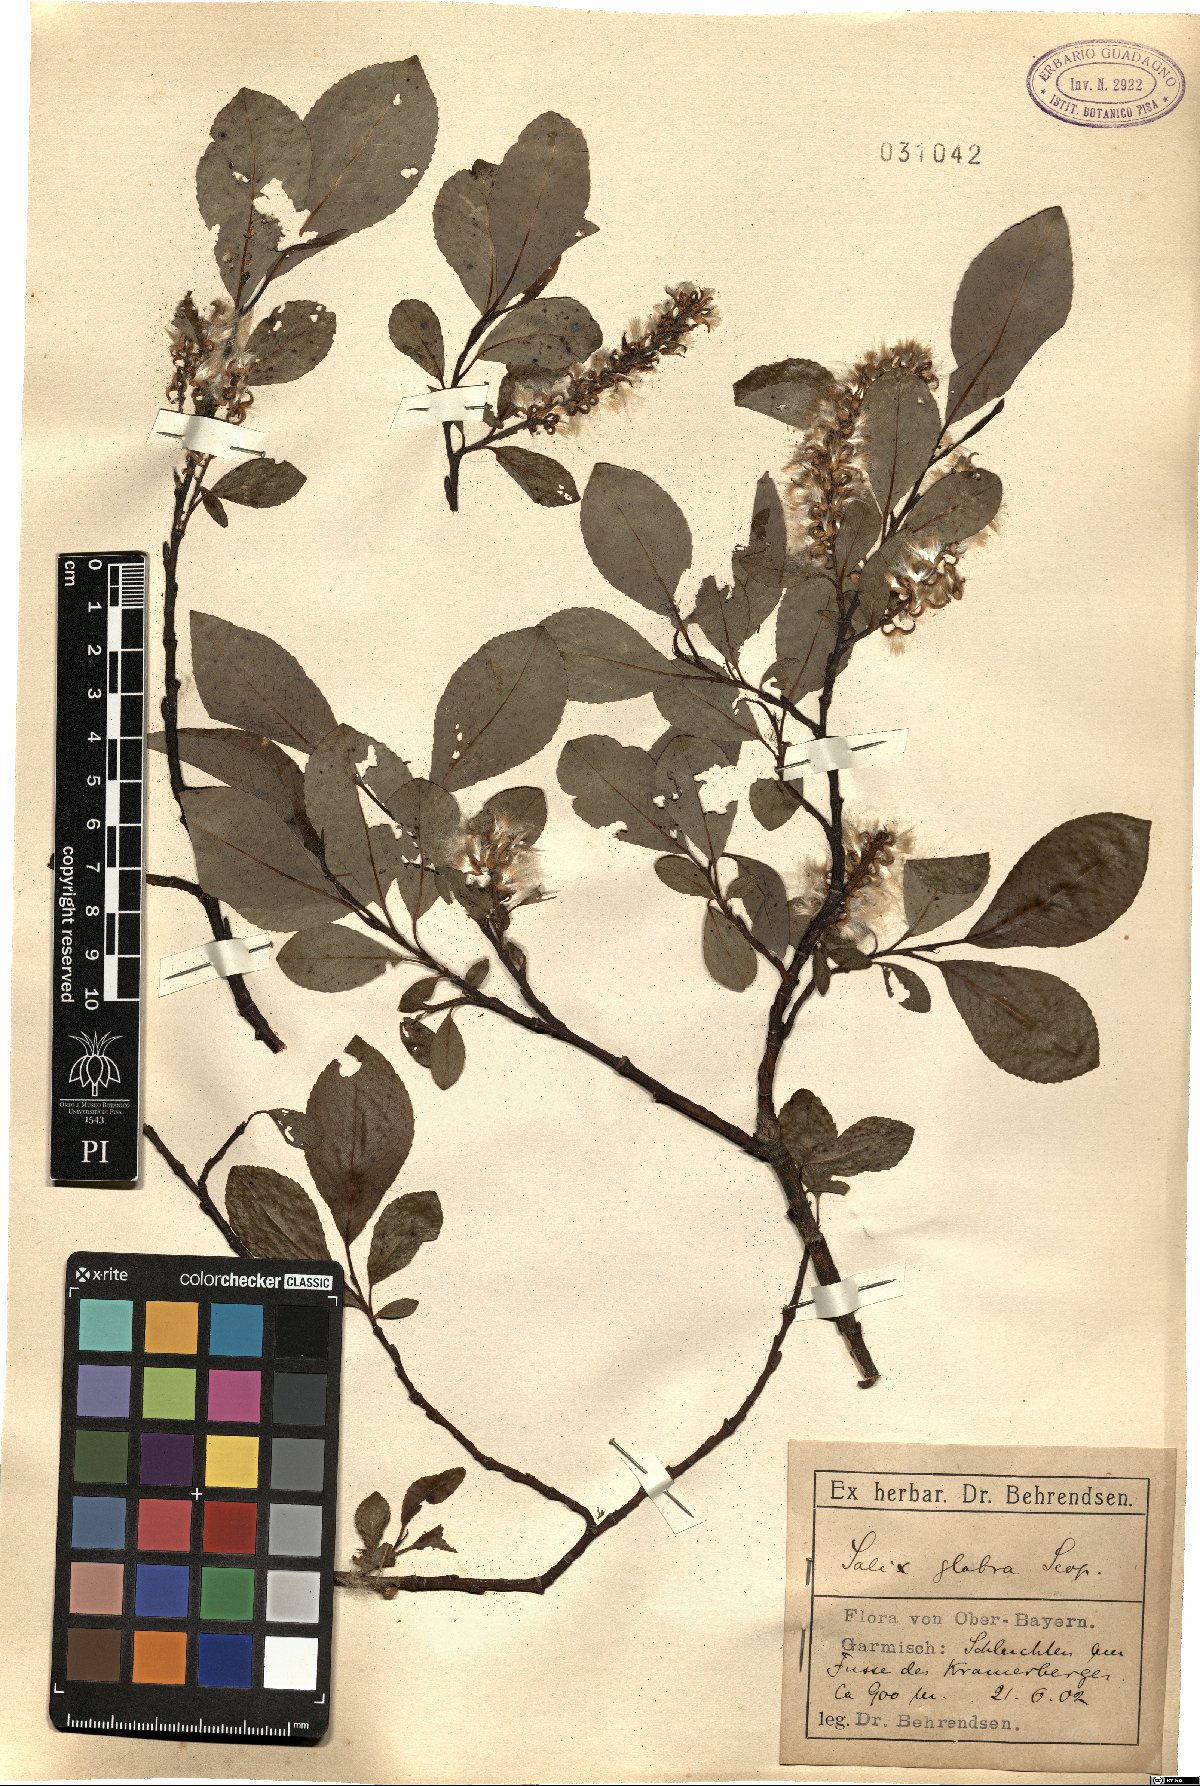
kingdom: Plantae
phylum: Tracheophyta
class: Magnoliopsida
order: Malpighiales
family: Salicaceae
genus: Salix
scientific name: Salix glabra
